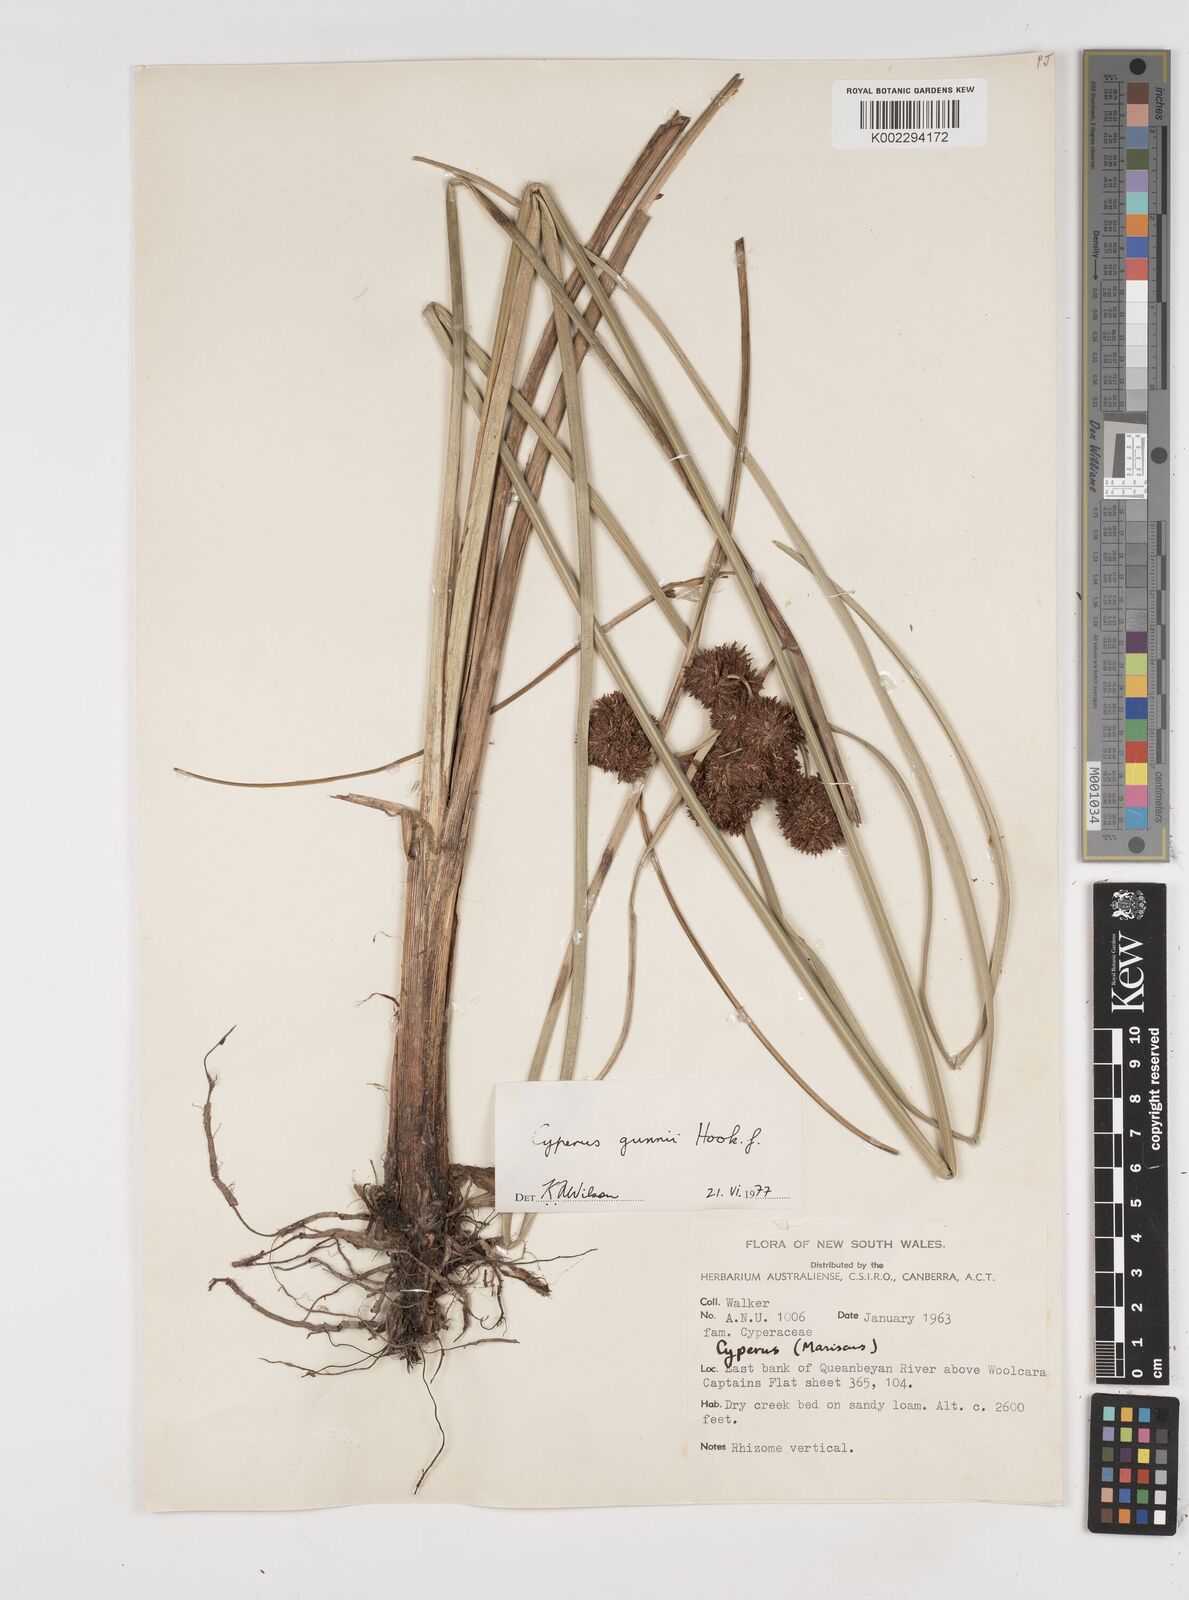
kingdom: Plantae
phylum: Tracheophyta
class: Liliopsida
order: Poales
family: Cyperaceae
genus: Cyperus
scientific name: Cyperus gunnii
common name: Flecked flat-sedge
